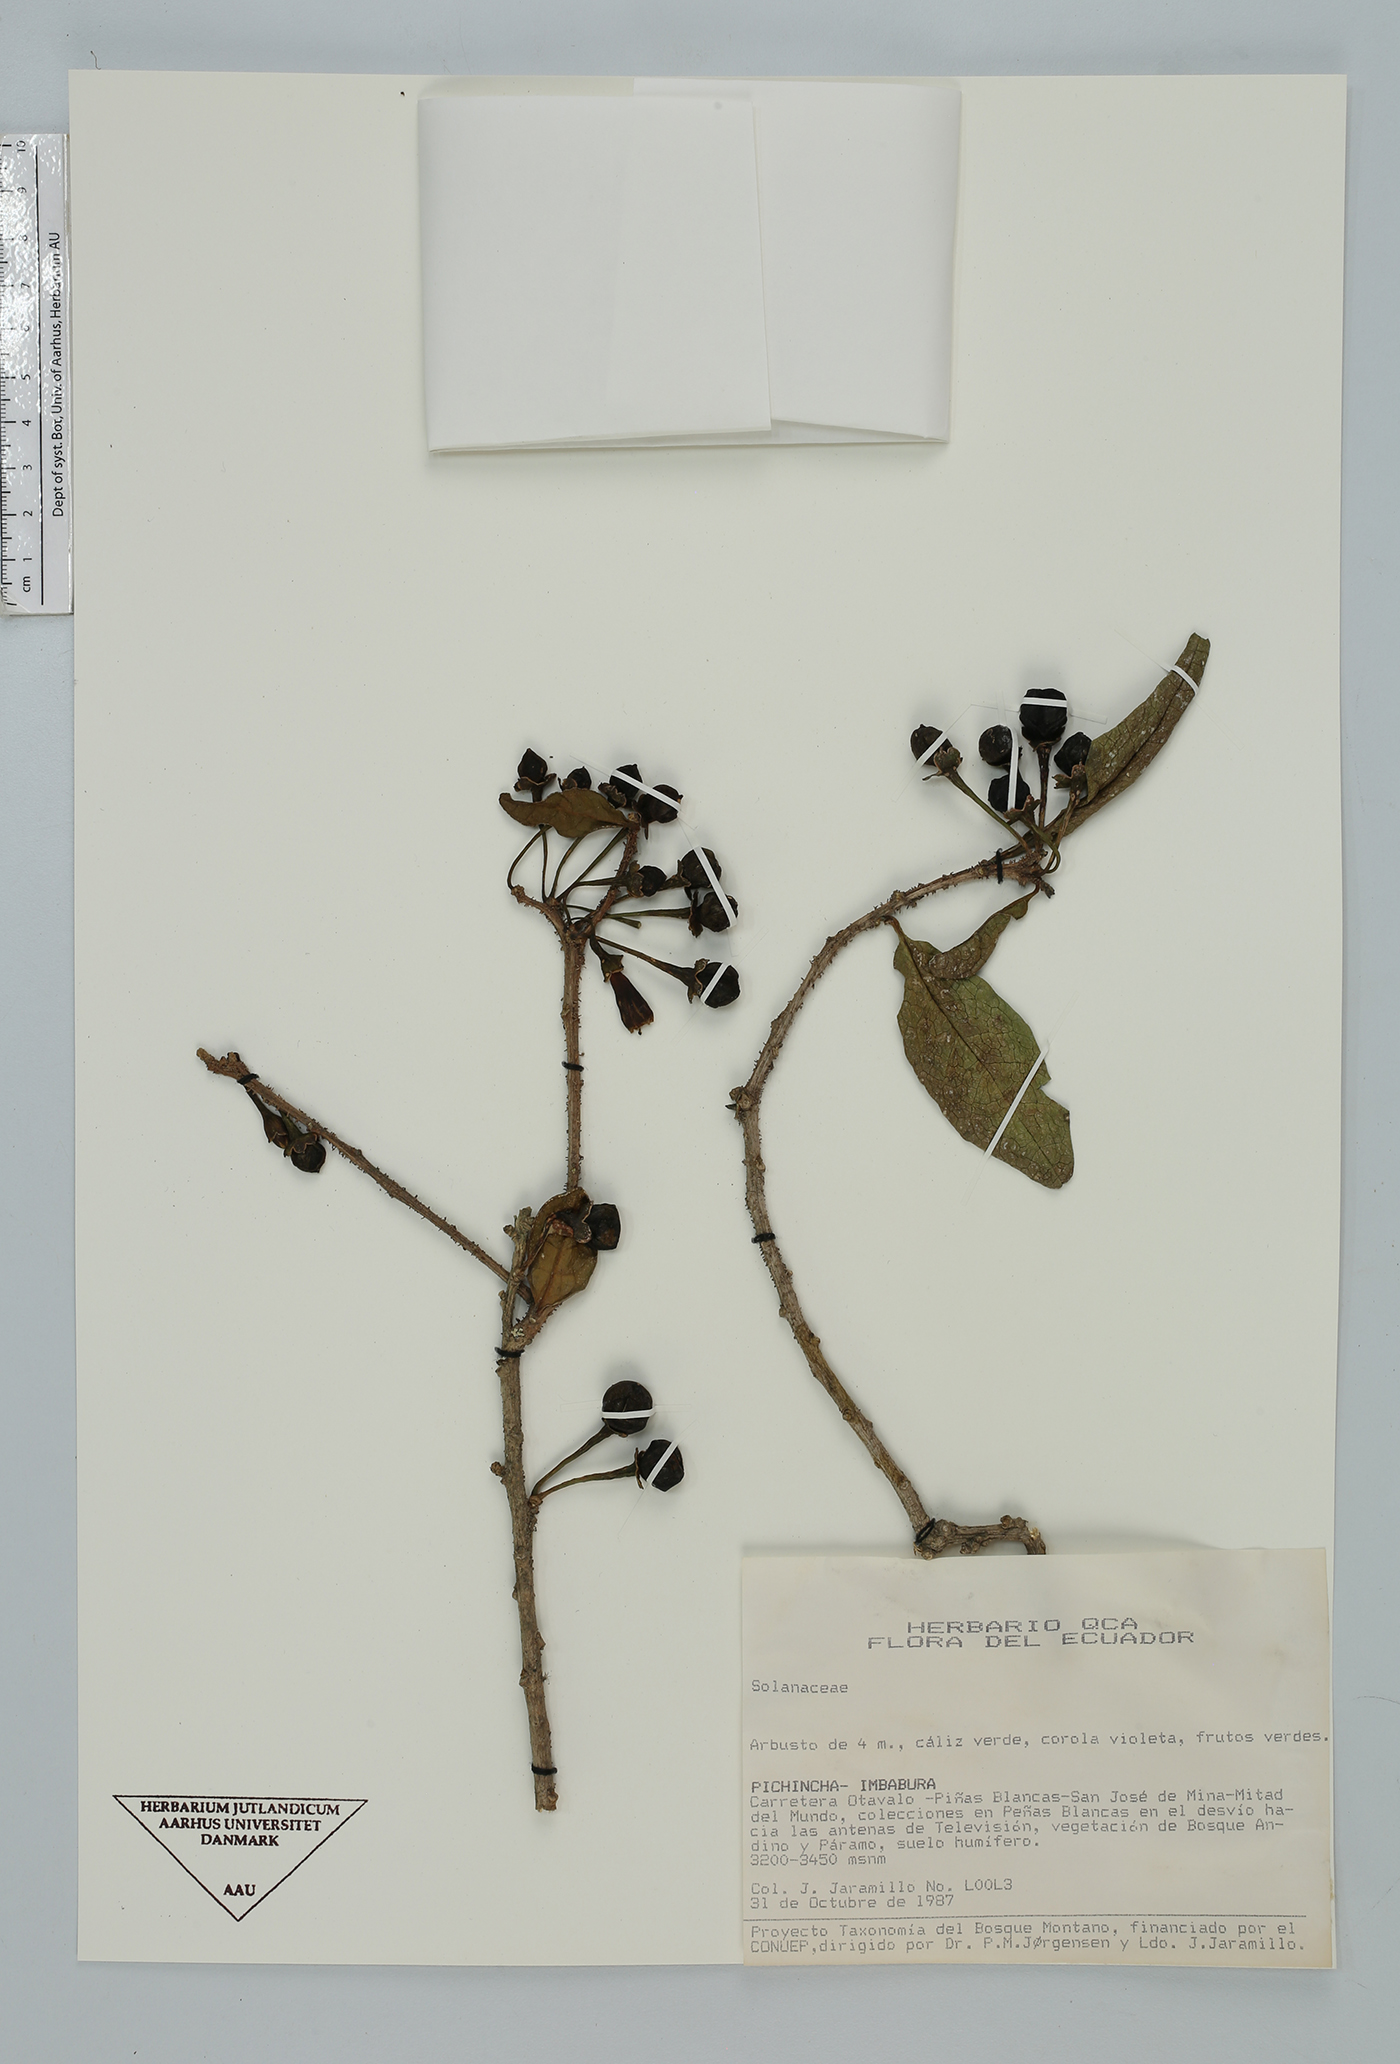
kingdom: Plantae
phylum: Tracheophyta
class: Magnoliopsida
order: Solanales
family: Solanaceae
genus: Saracha
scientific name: Saracha quitensis
